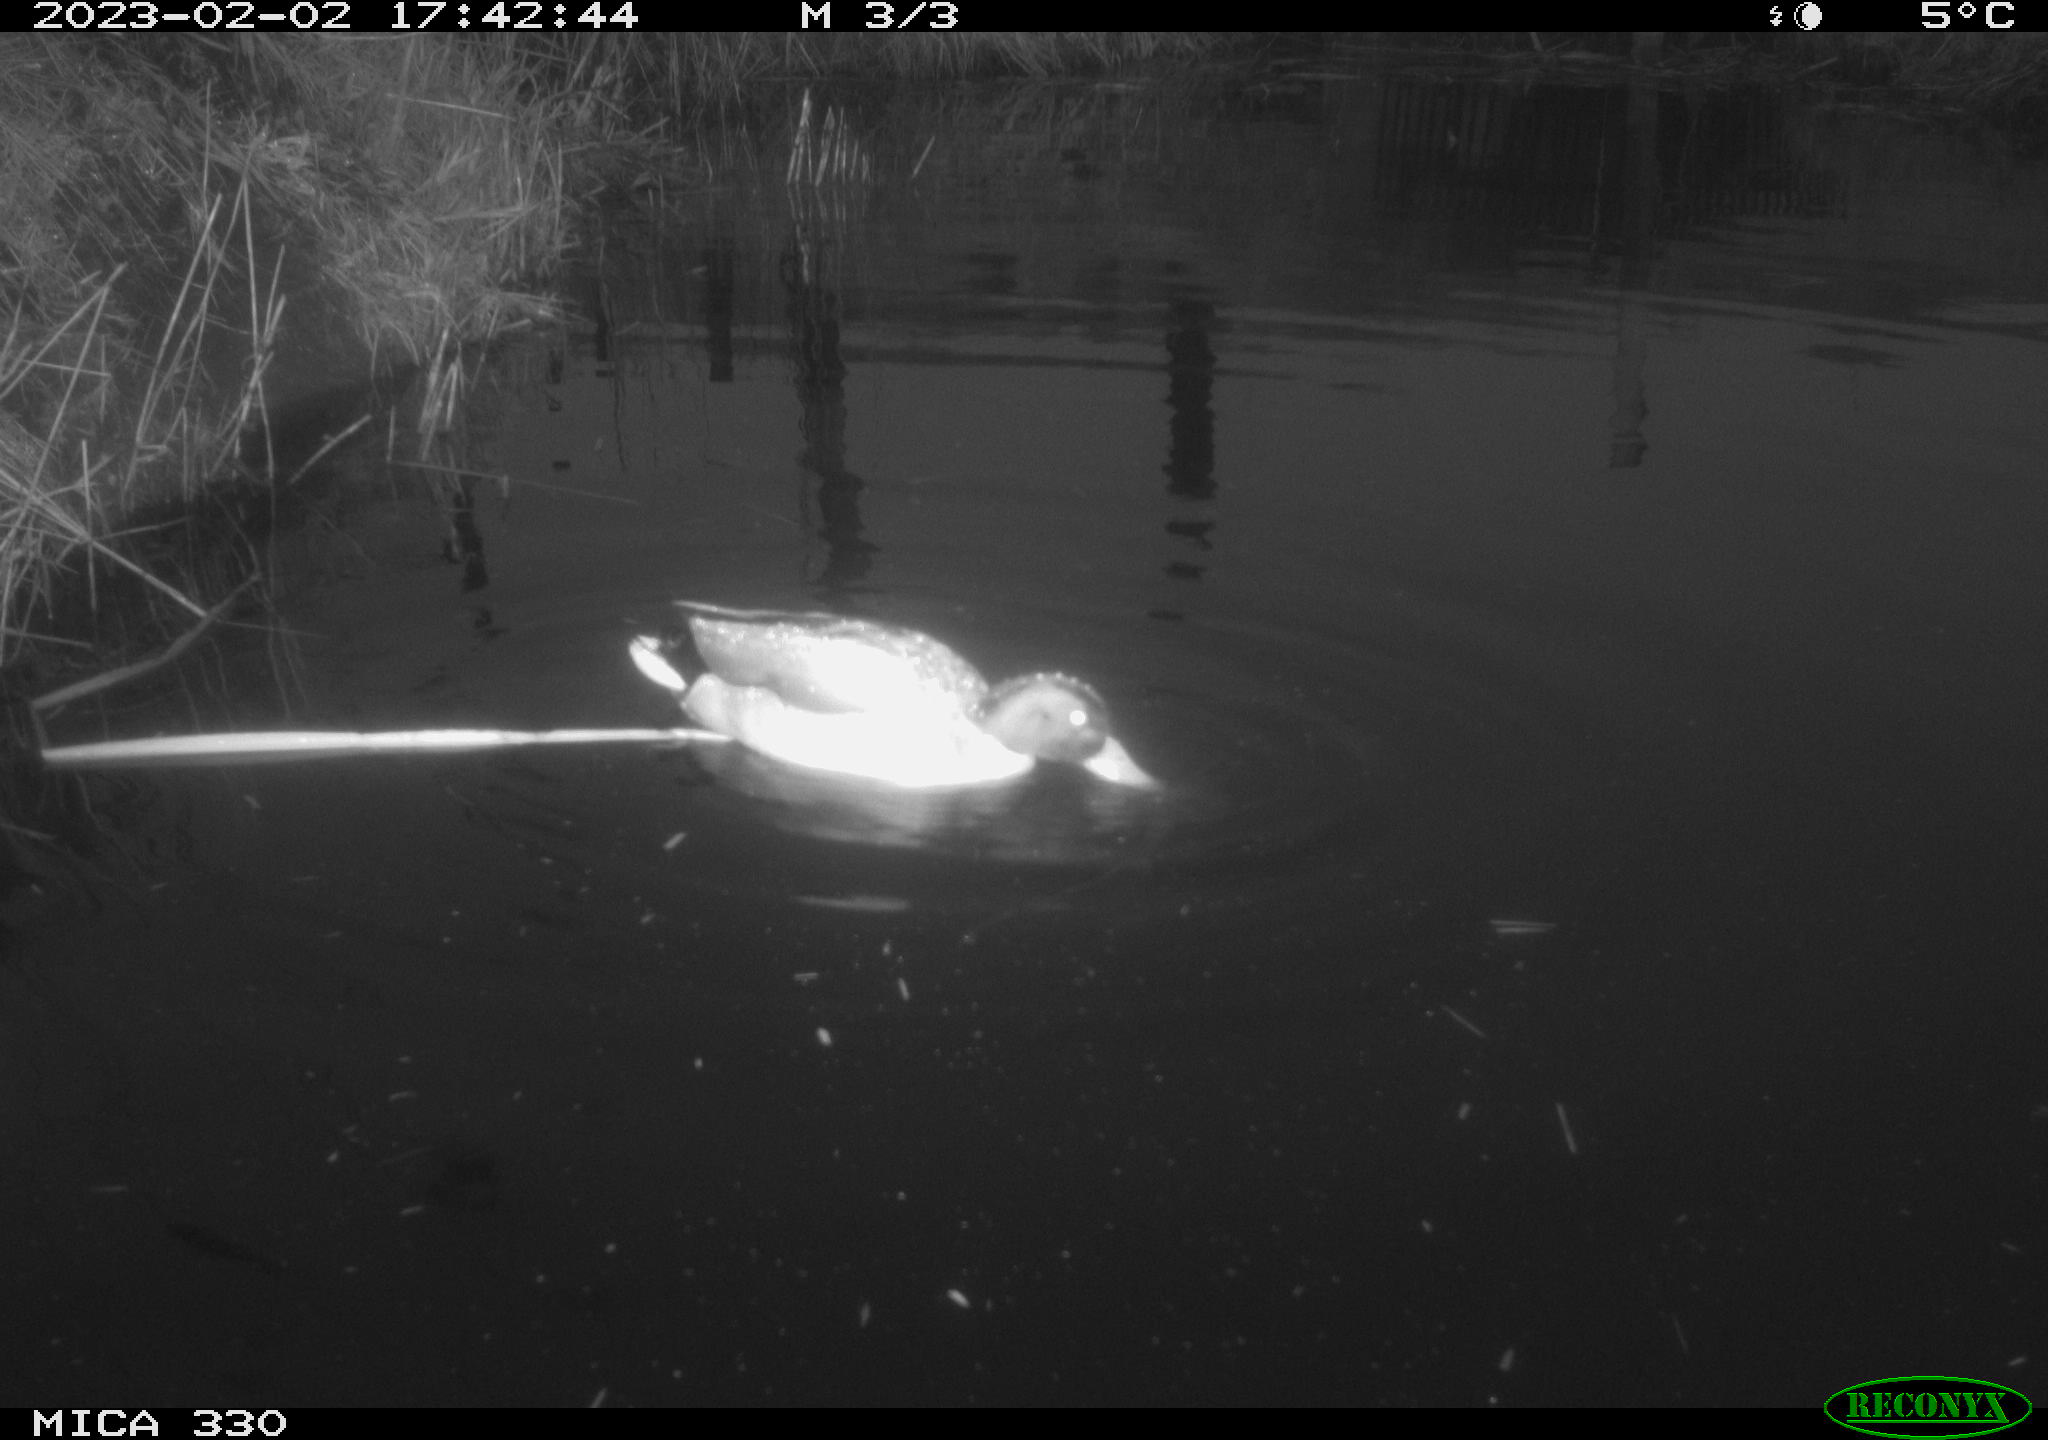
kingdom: Animalia
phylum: Chordata
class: Aves
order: Anseriformes
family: Anatidae
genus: Anas
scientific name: Anas
